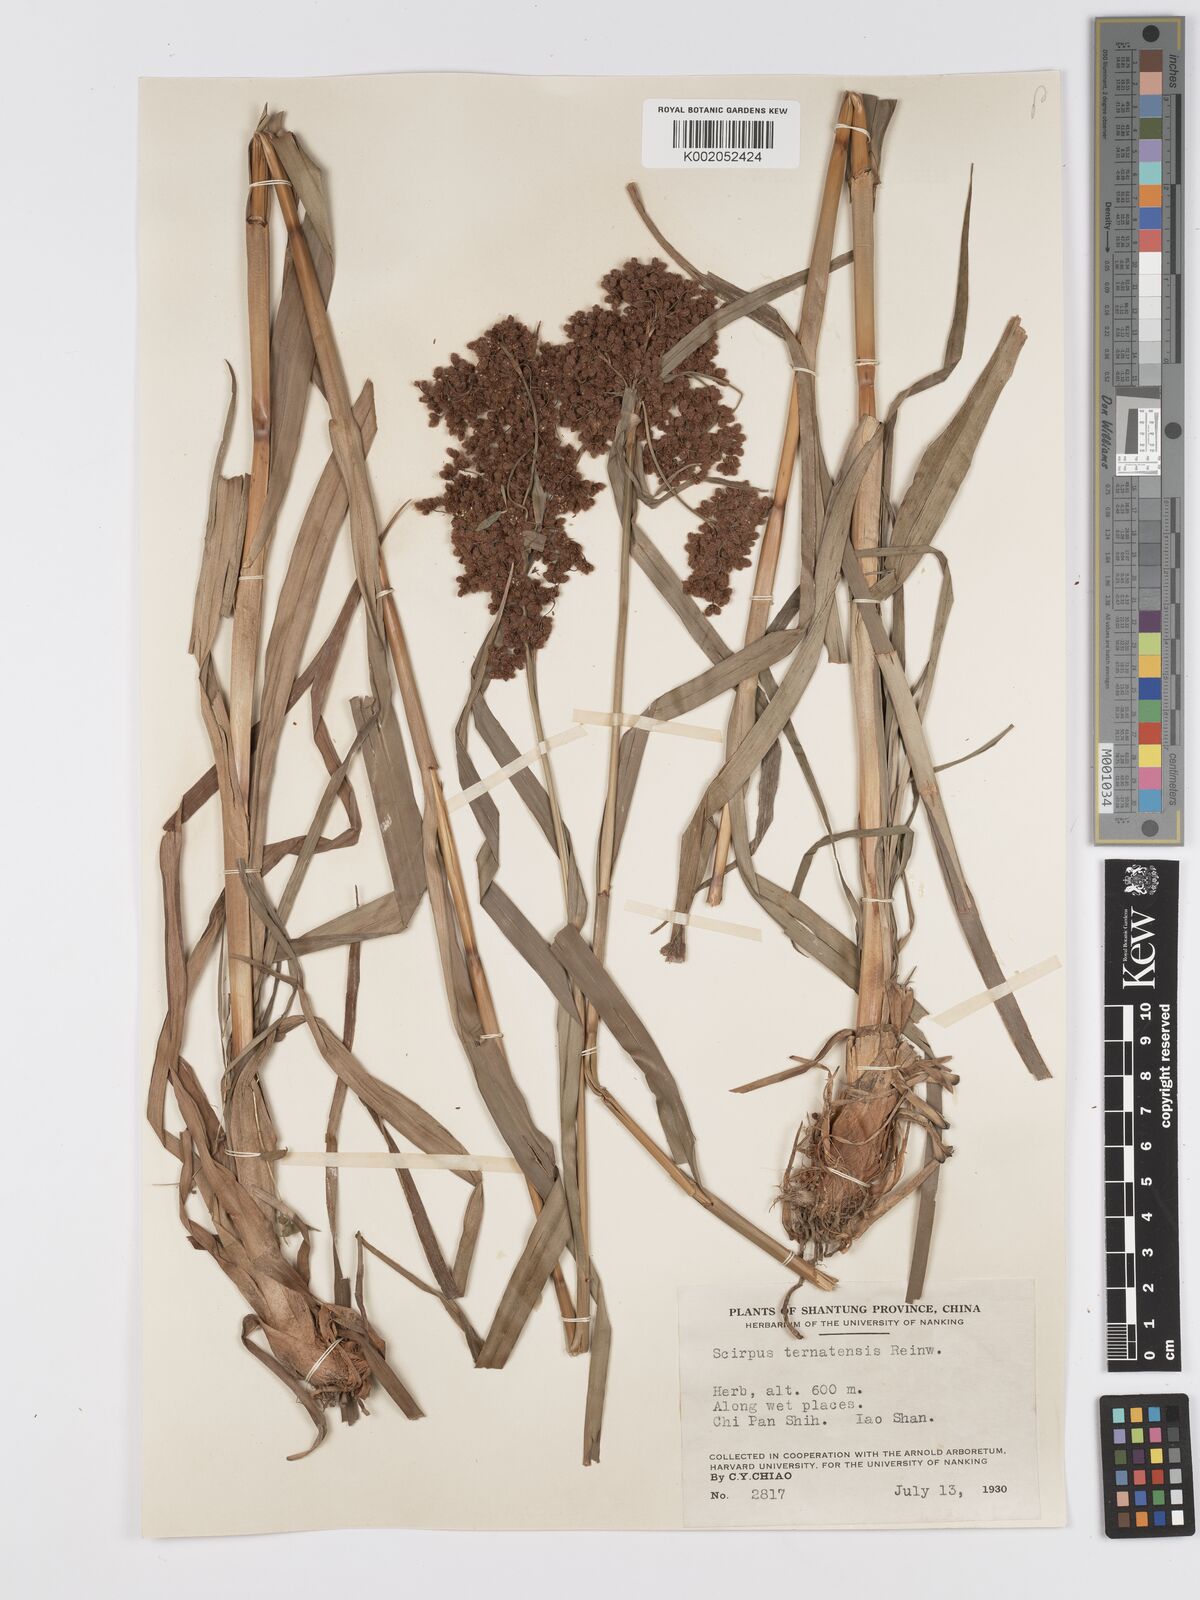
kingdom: Plantae
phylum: Tracheophyta
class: Liliopsida
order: Poales
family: Cyperaceae
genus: Scirpus
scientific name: Scirpus ternatanus
